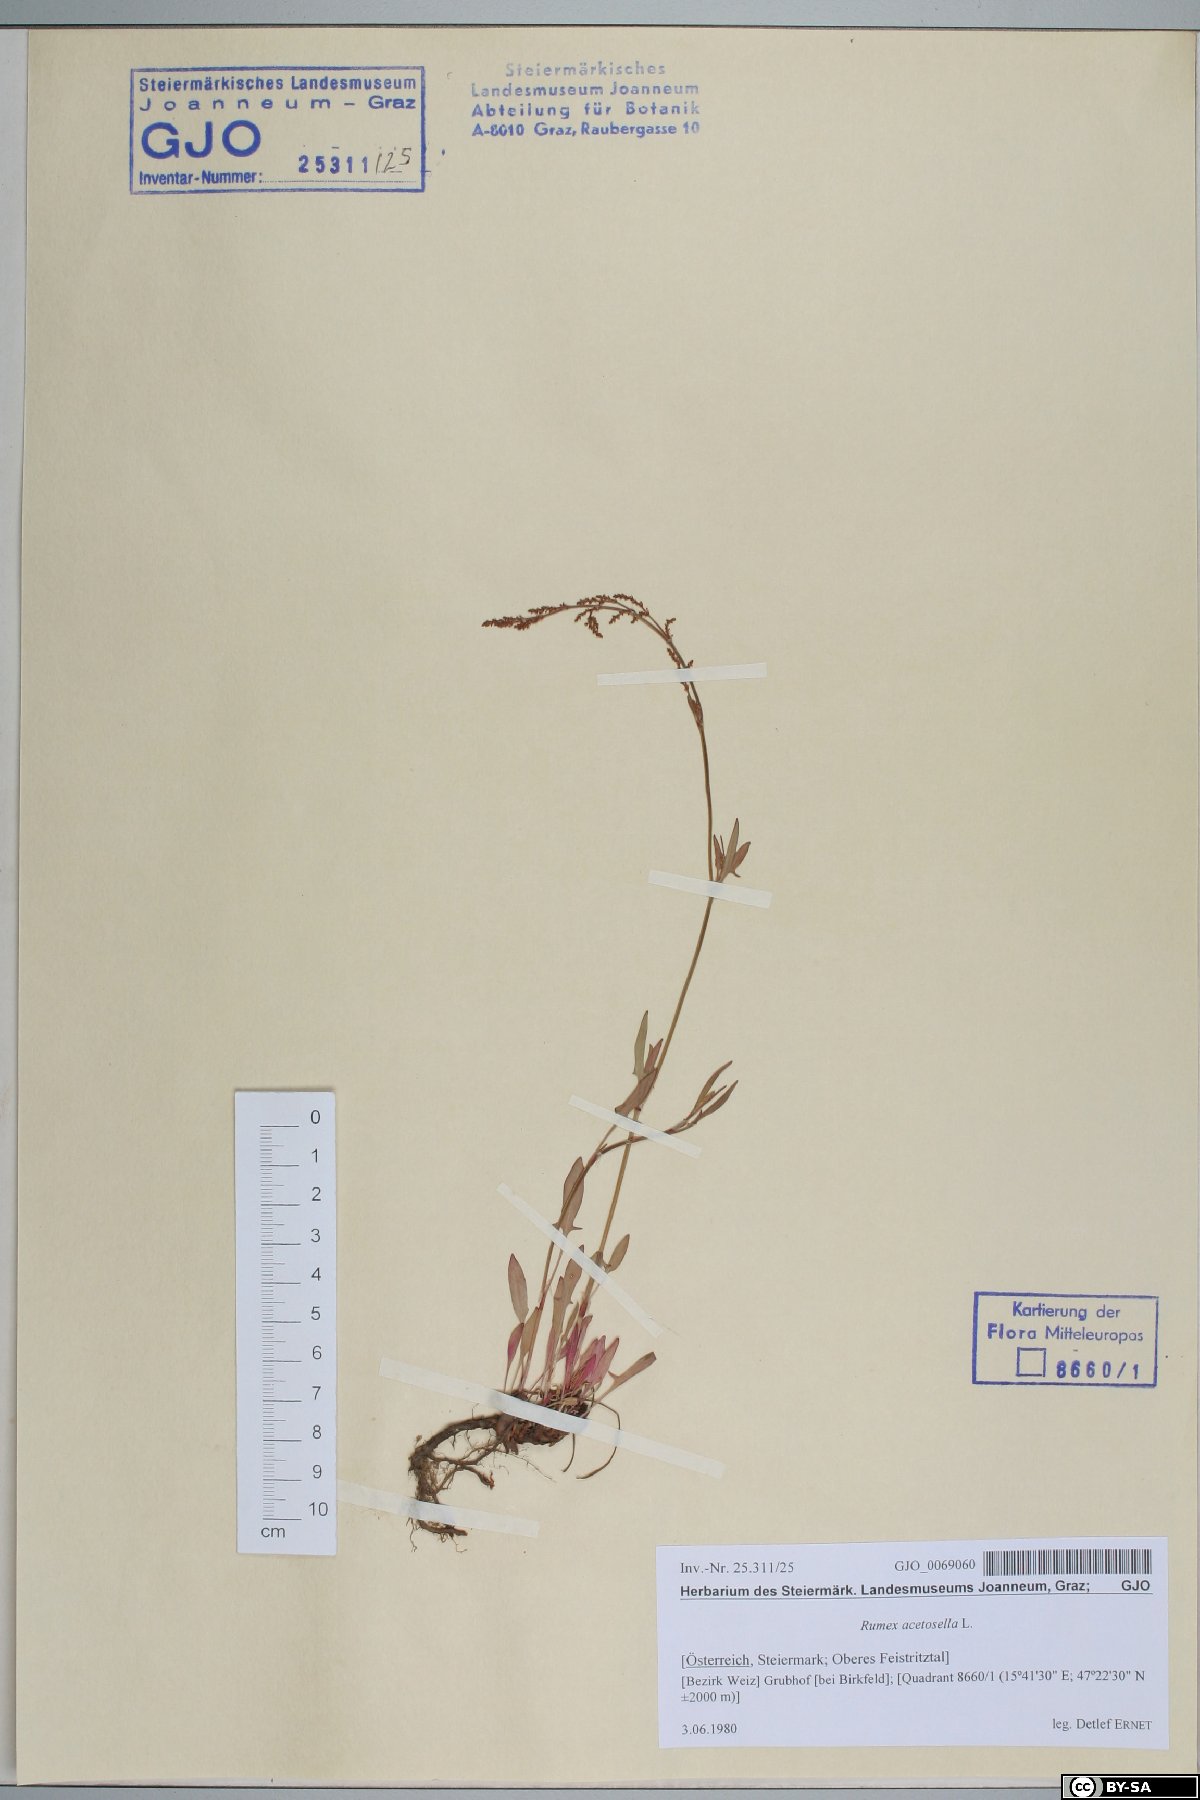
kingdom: Plantae
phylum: Tracheophyta
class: Magnoliopsida
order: Caryophyllales
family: Polygonaceae
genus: Rumex
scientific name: Rumex acetosella
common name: Common sheep sorrel
